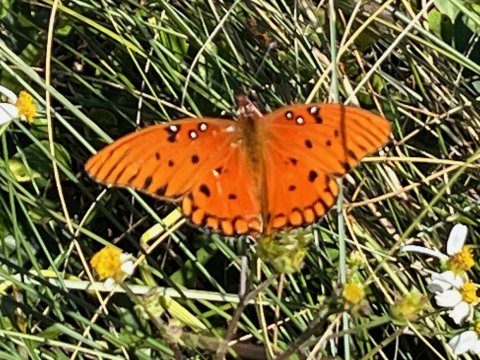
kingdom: Animalia
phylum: Arthropoda
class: Insecta
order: Lepidoptera
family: Nymphalidae
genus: Dione
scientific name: Dione vanillae
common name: Gulf Fritillary
